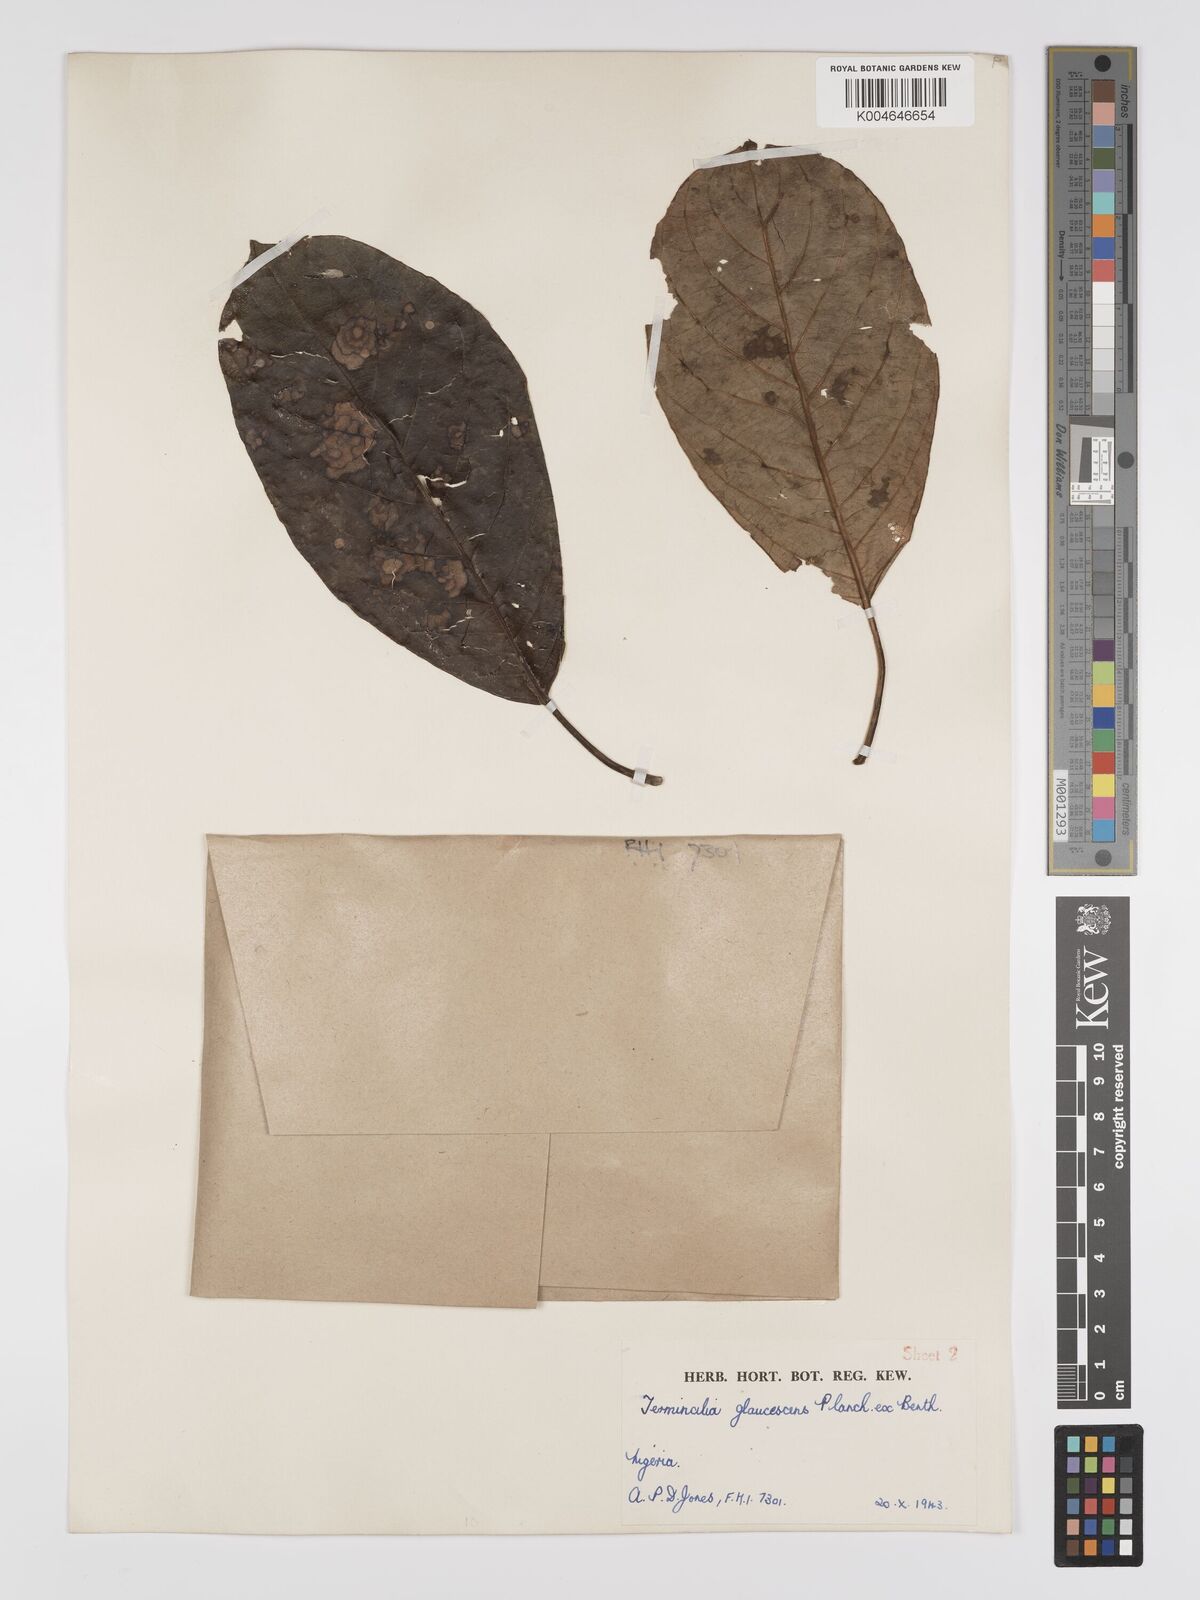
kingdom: Plantae
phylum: Tracheophyta
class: Magnoliopsida
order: Myrtales
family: Combretaceae
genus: Terminalia
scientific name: Terminalia schimperiana
